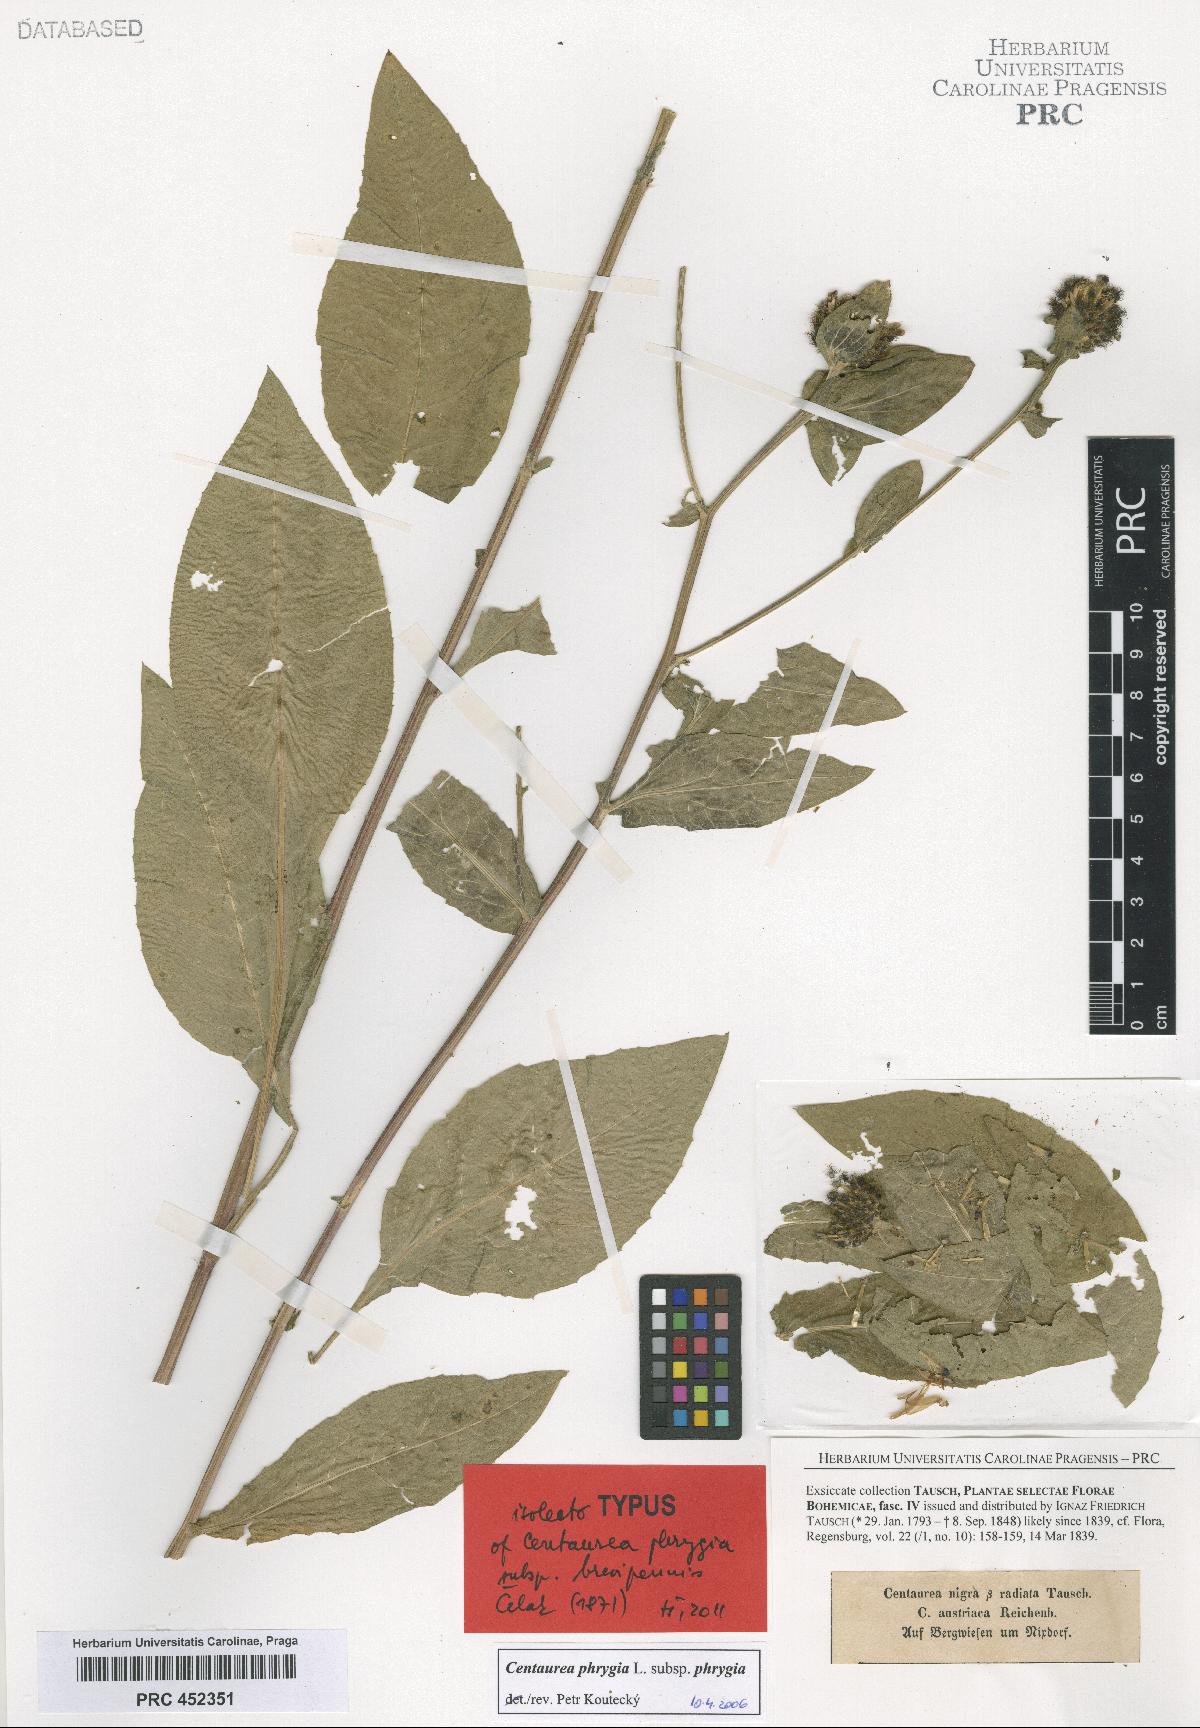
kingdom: Plantae
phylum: Tracheophyta
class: Magnoliopsida
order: Asterales
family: Asteraceae
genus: Centaurea
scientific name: Centaurea phrygia
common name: Wig knapweed
